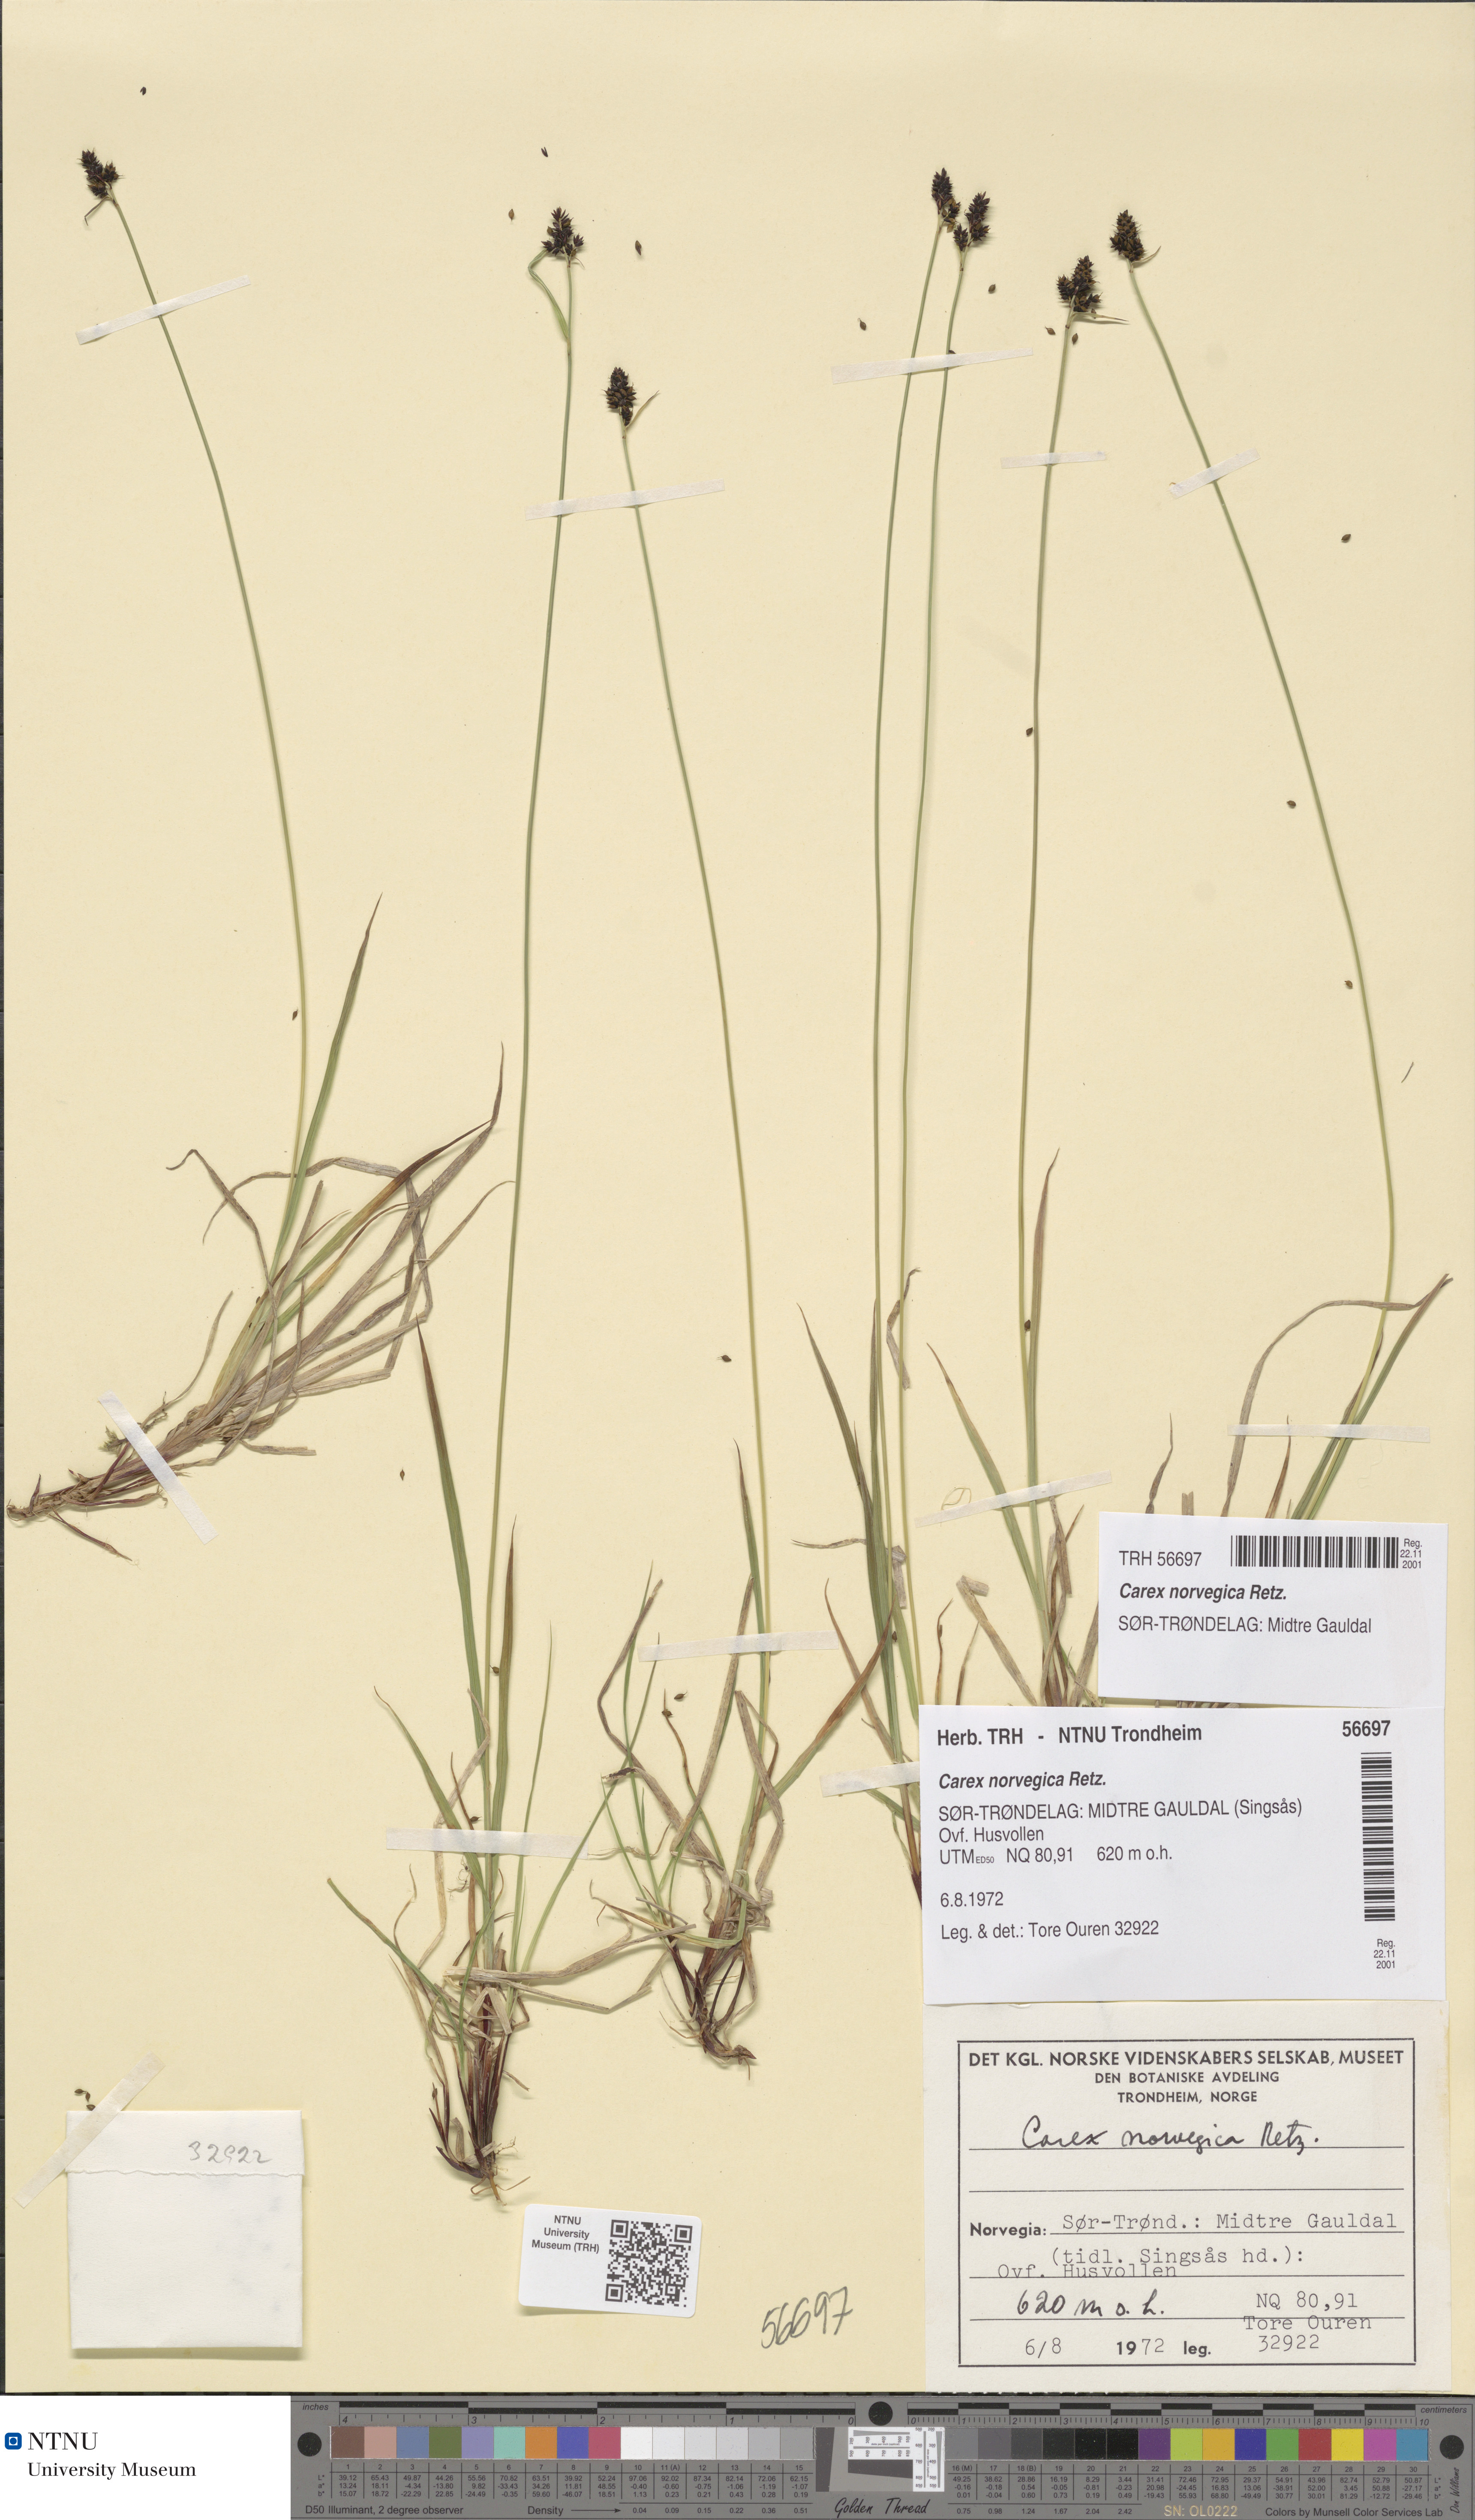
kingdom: Plantae
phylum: Tracheophyta
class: Liliopsida
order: Poales
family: Cyperaceae
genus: Carex
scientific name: Carex norvegica
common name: Close-headed alpine-sedge
